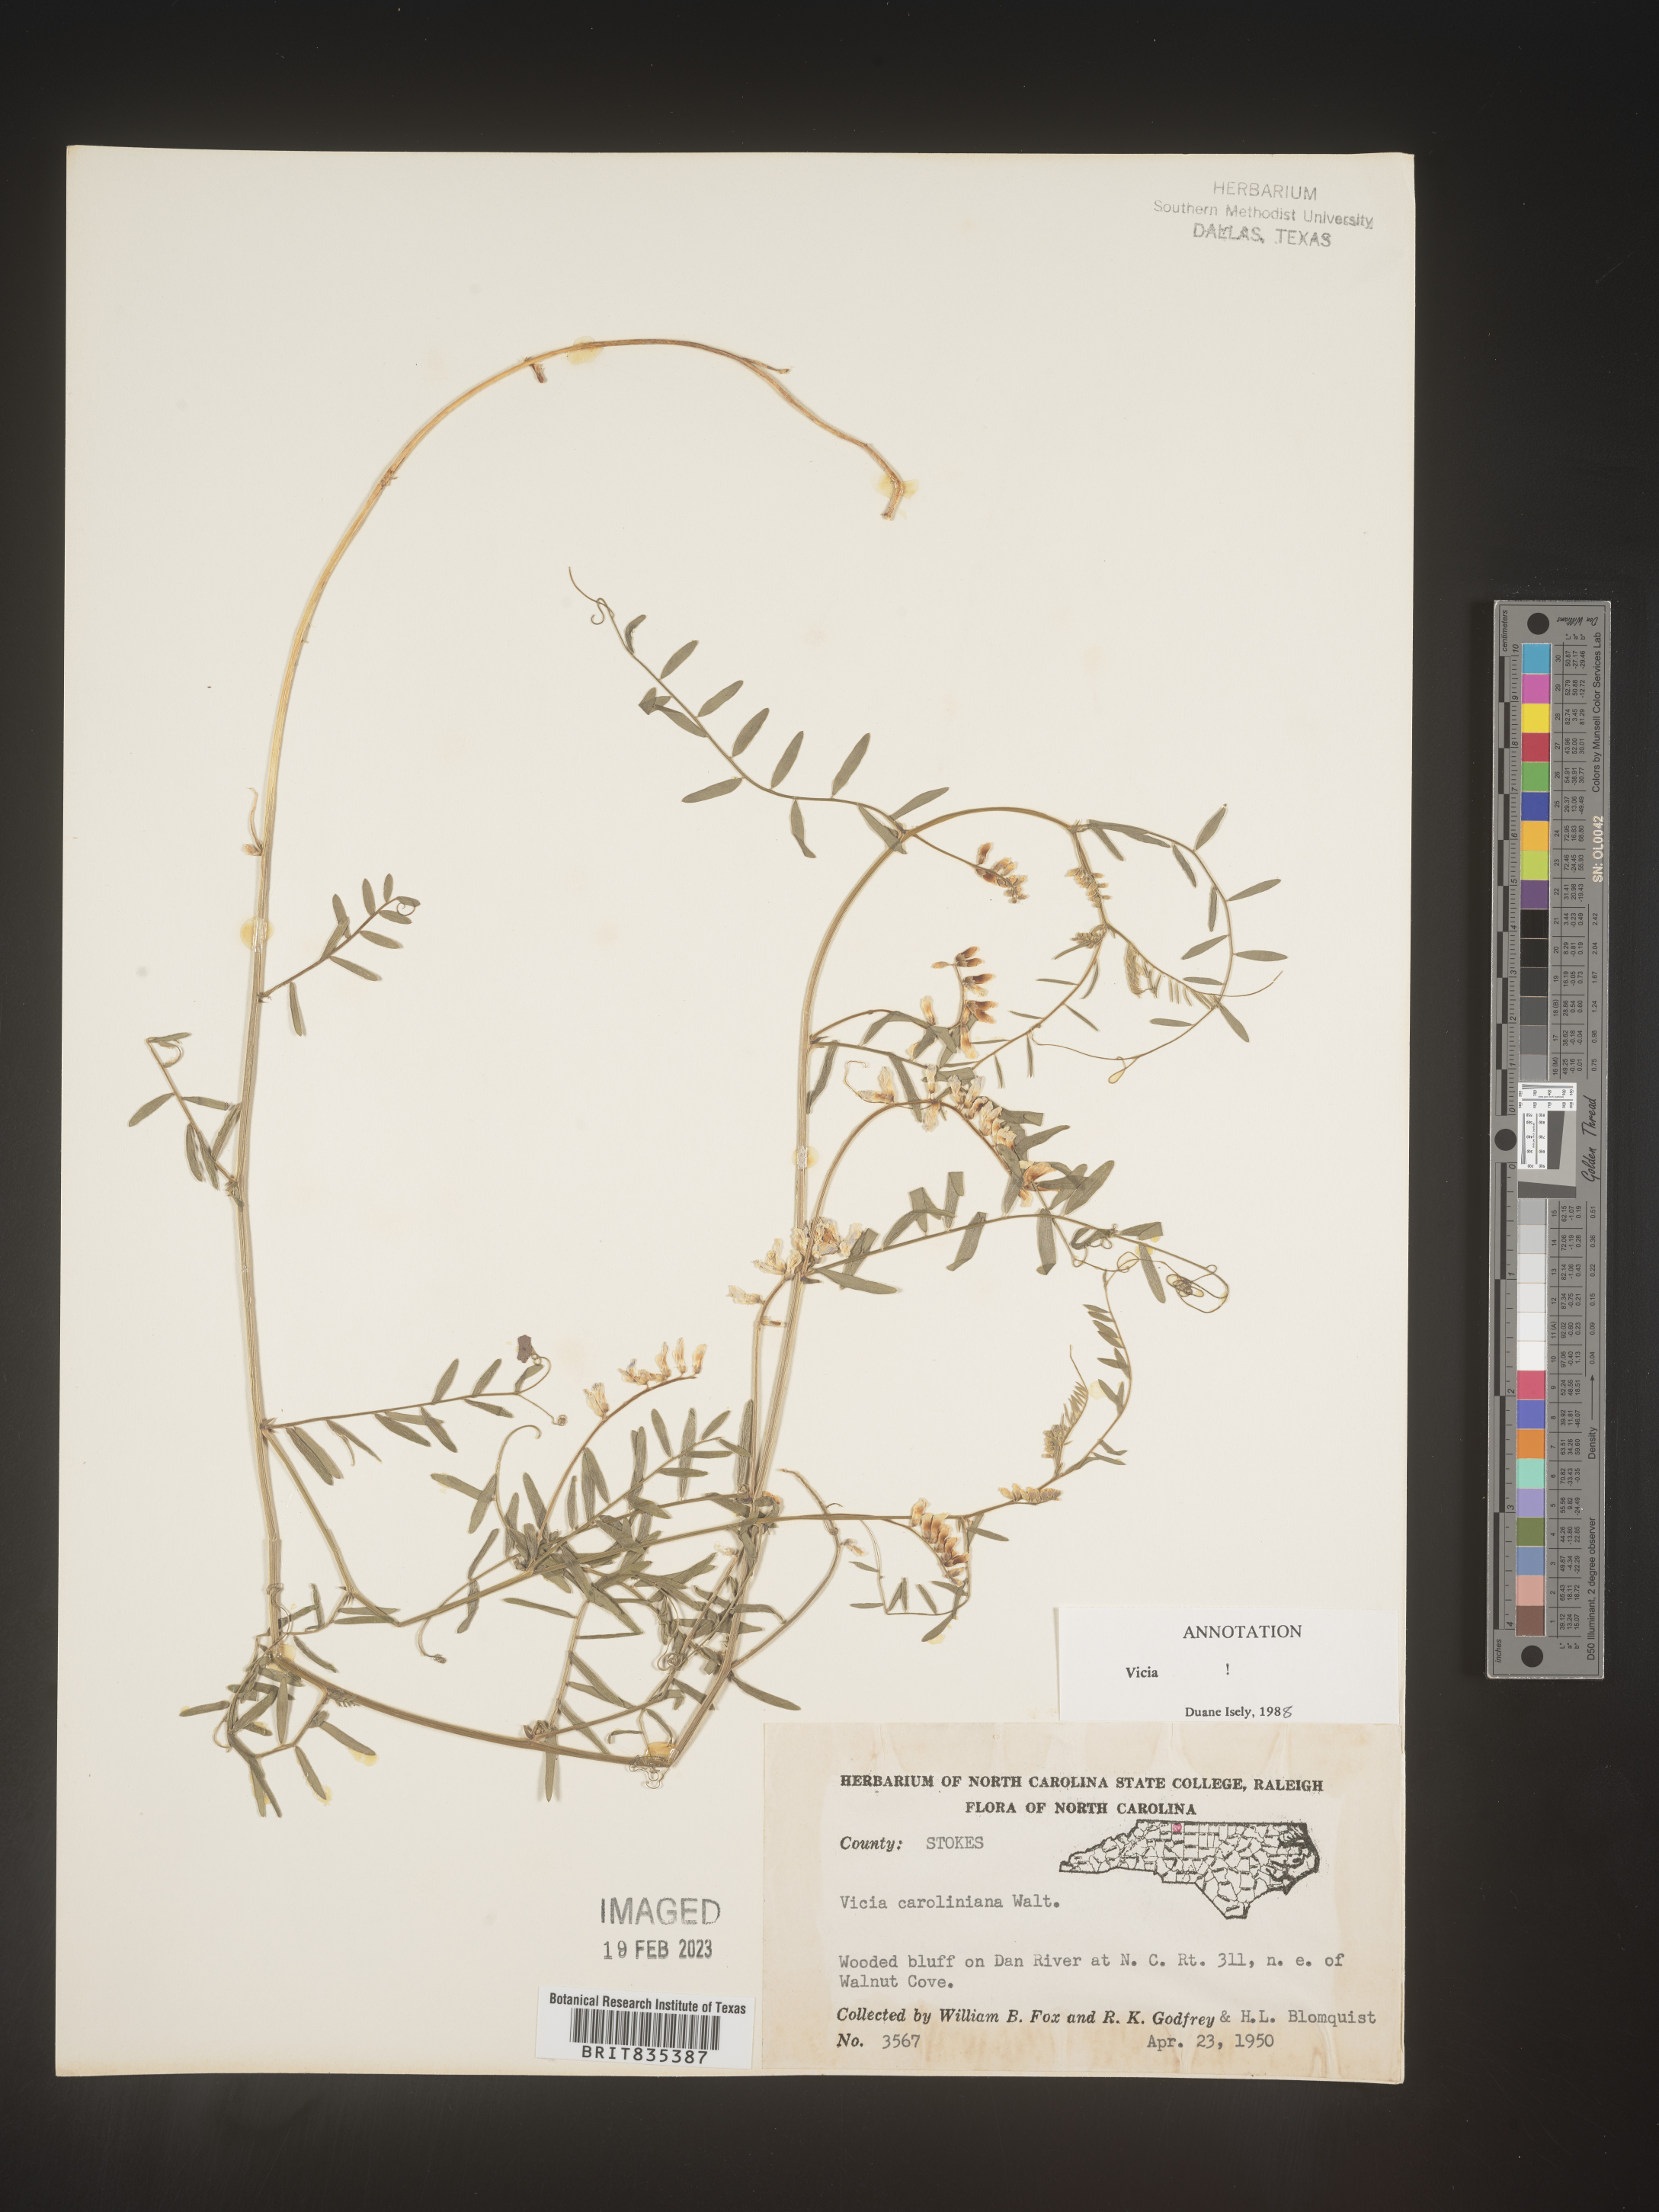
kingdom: Plantae
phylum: Tracheophyta
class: Magnoliopsida
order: Fabales
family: Fabaceae
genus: Vicia
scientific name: Vicia caroliniana
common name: Carolina vetch
